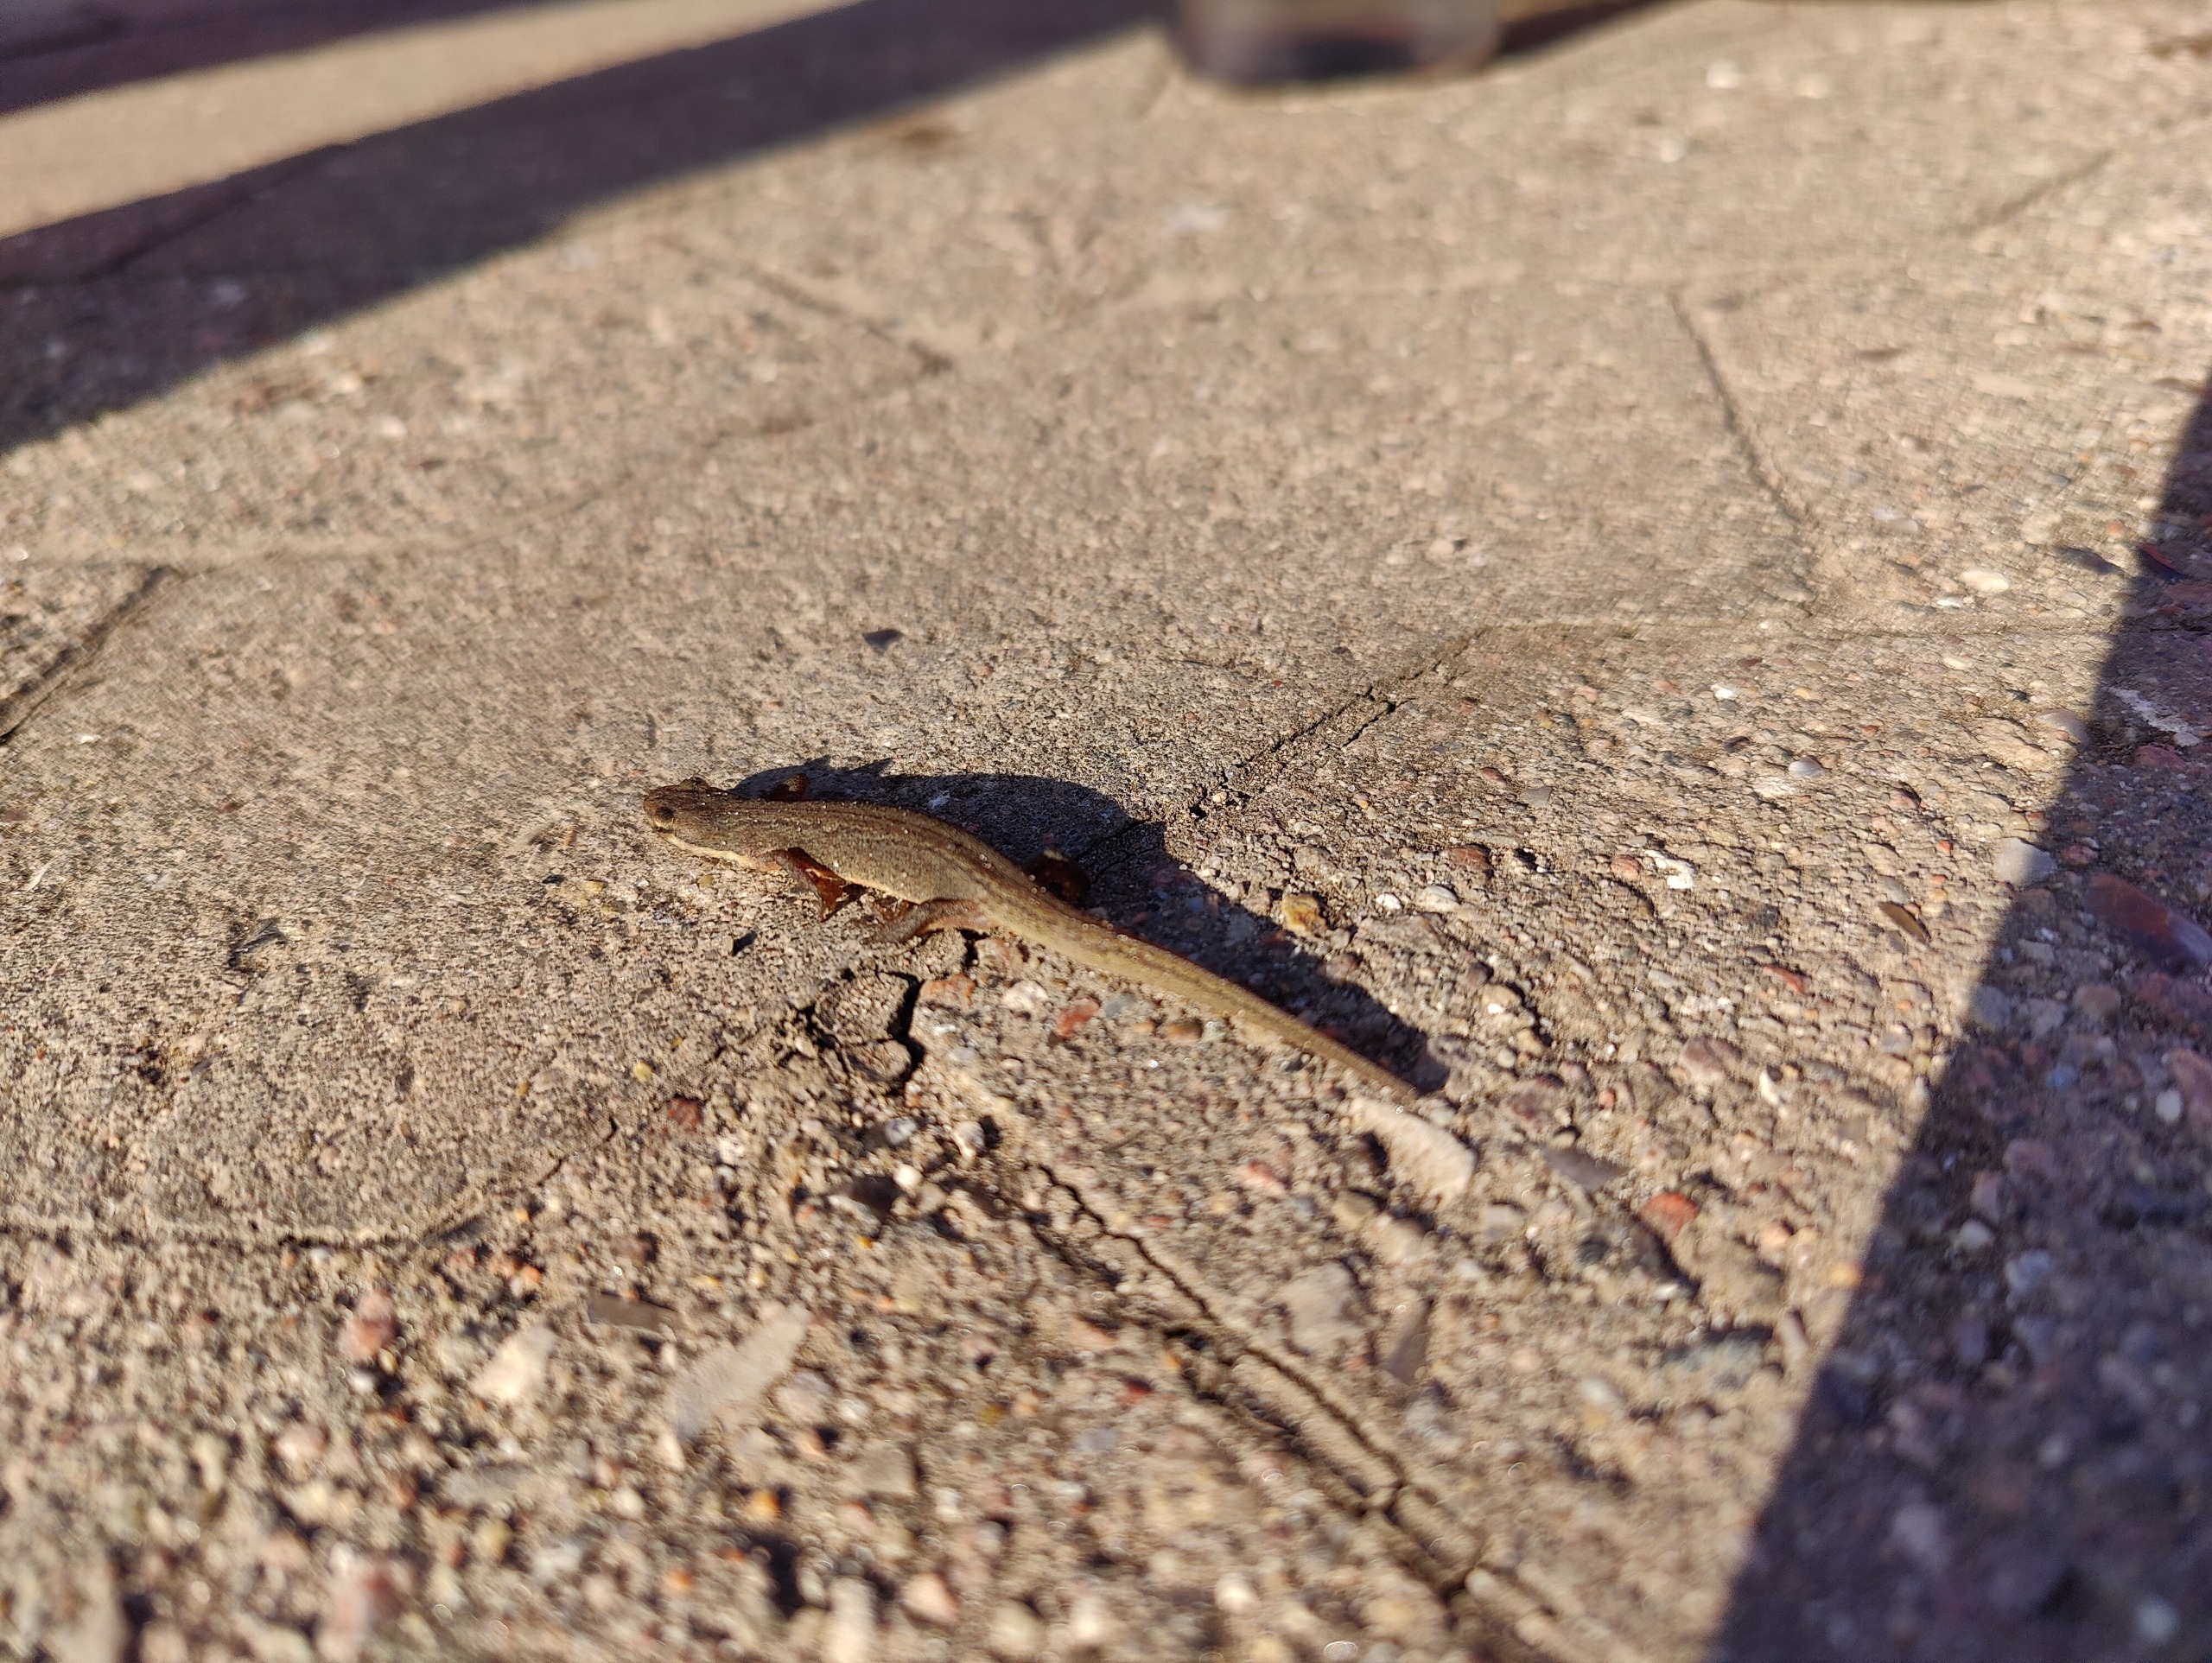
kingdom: Animalia
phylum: Chordata
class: Amphibia
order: Caudata
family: Salamandridae
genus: Lissotriton
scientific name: Lissotriton vulgaris
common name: Lille vandsalamander
